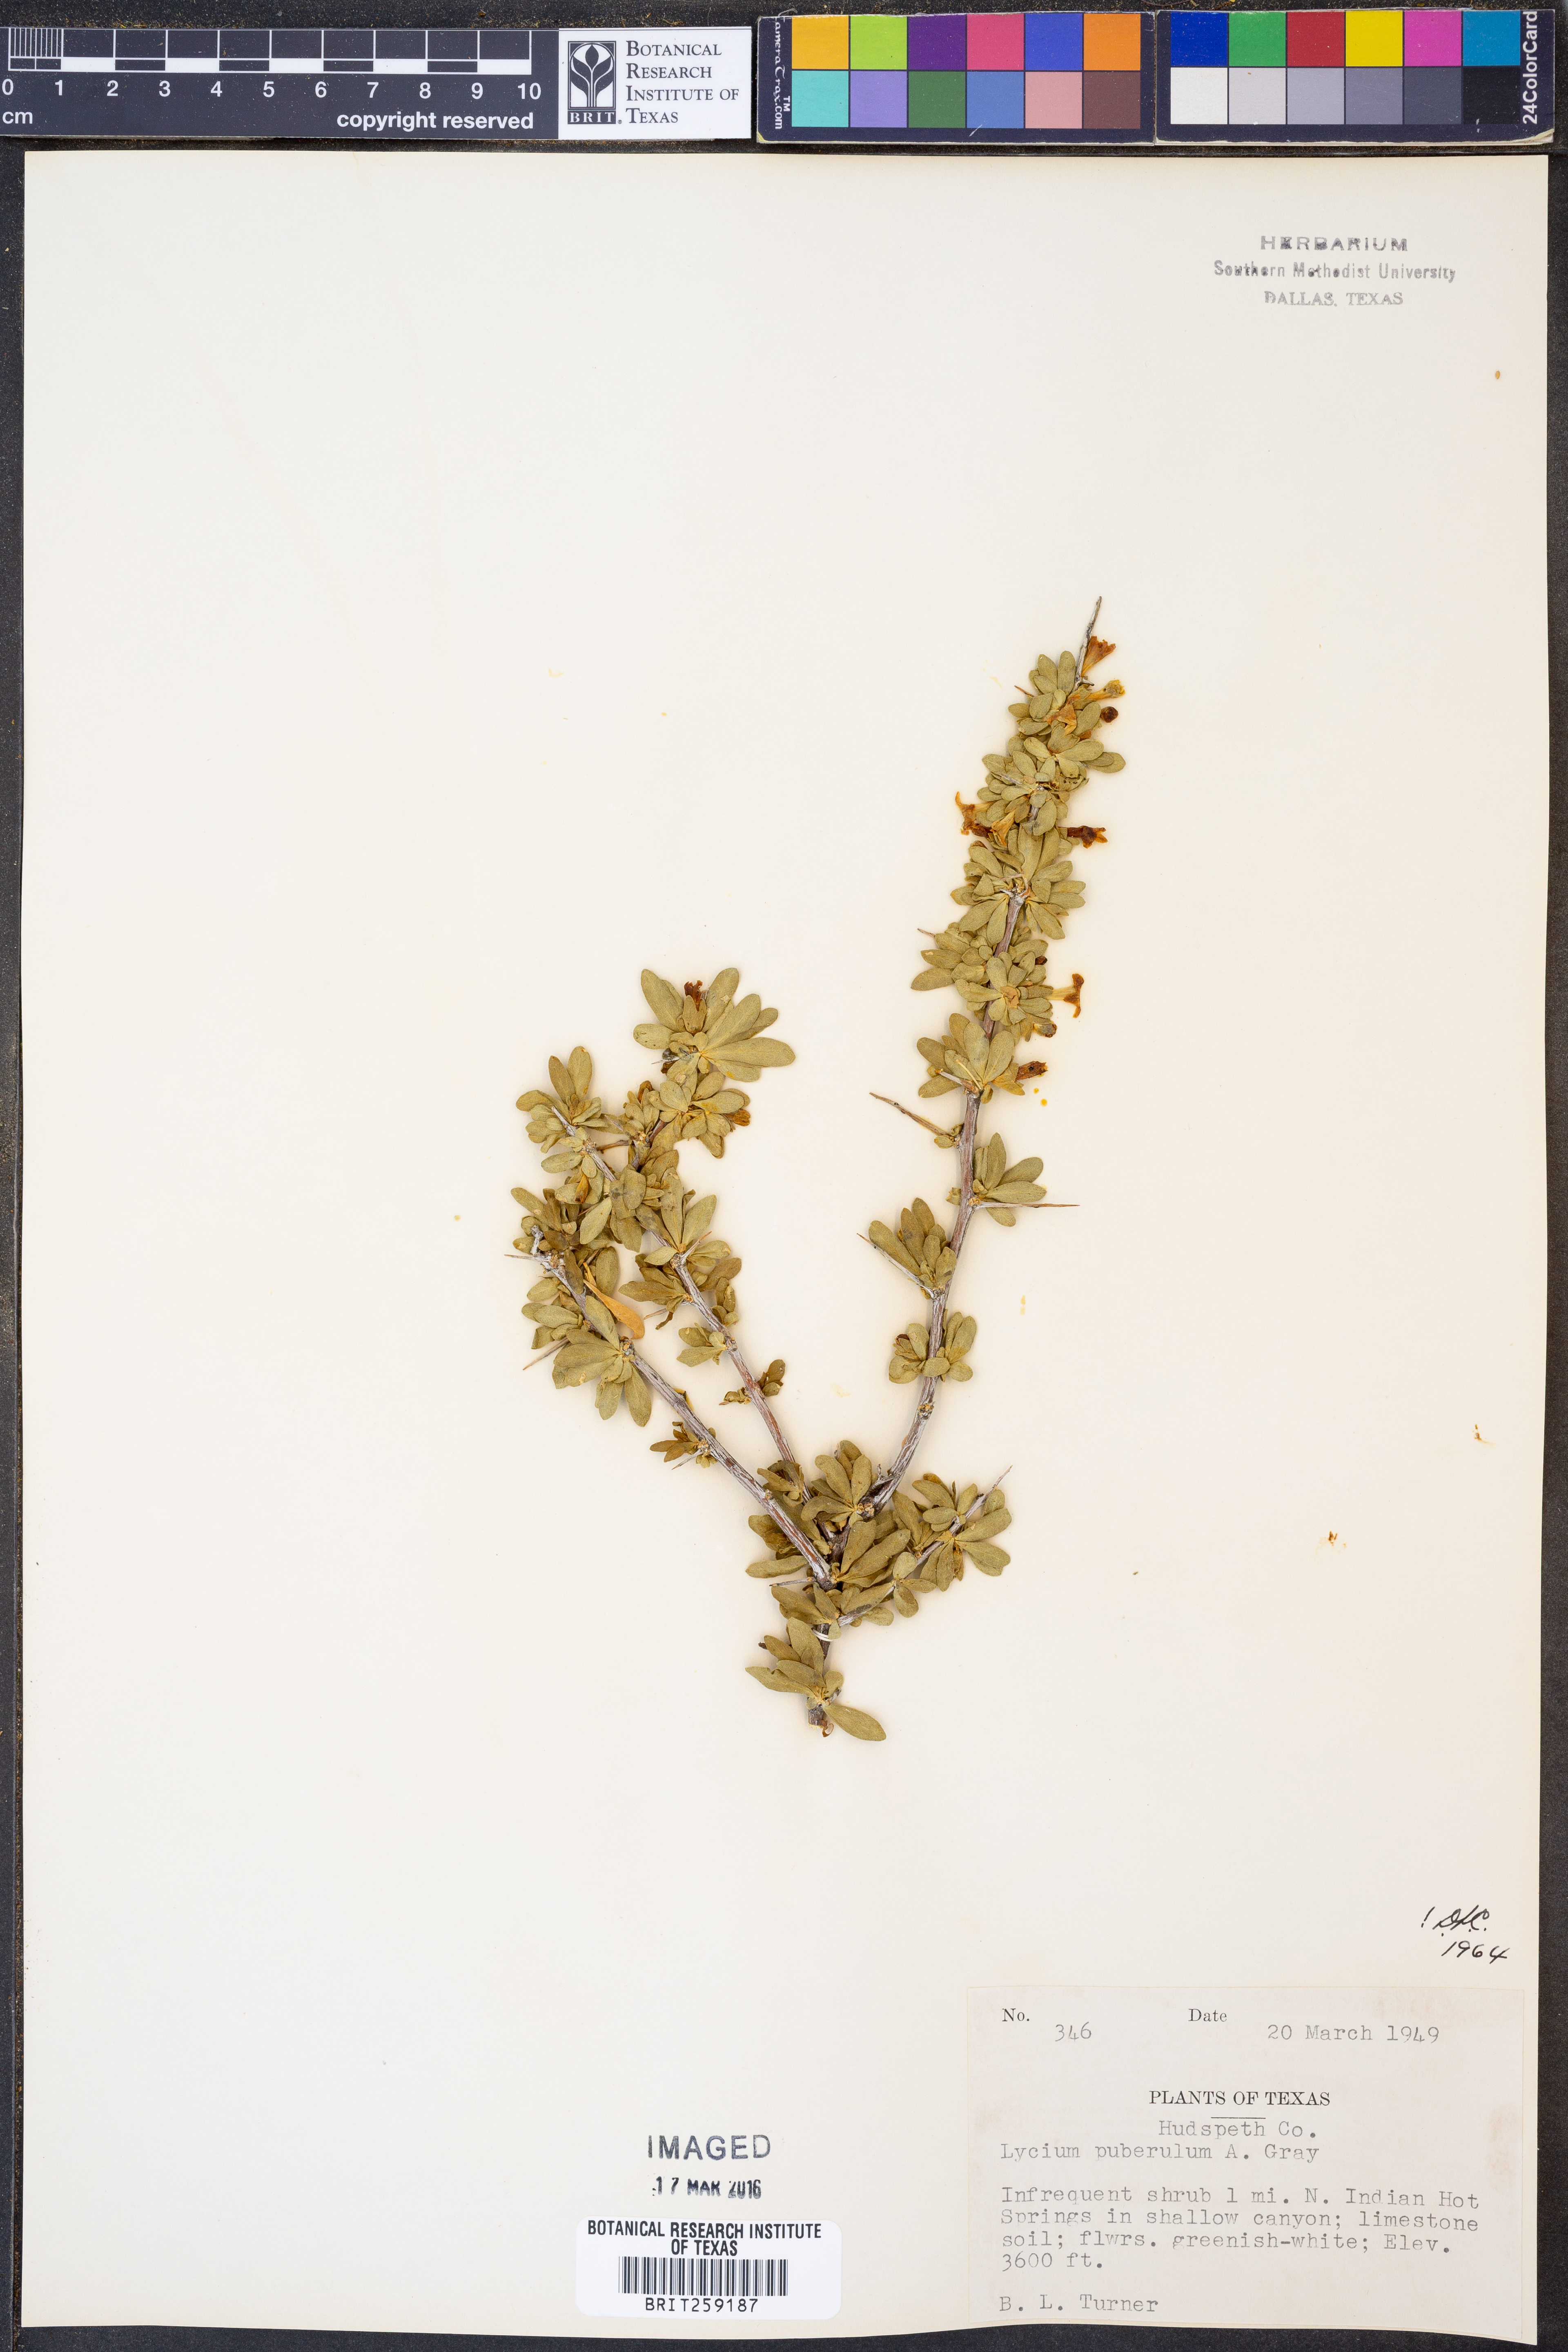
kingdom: Plantae
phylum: Tracheophyta
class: Magnoliopsida
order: Solanales
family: Solanaceae
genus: Lycium
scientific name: Lycium puberulum
